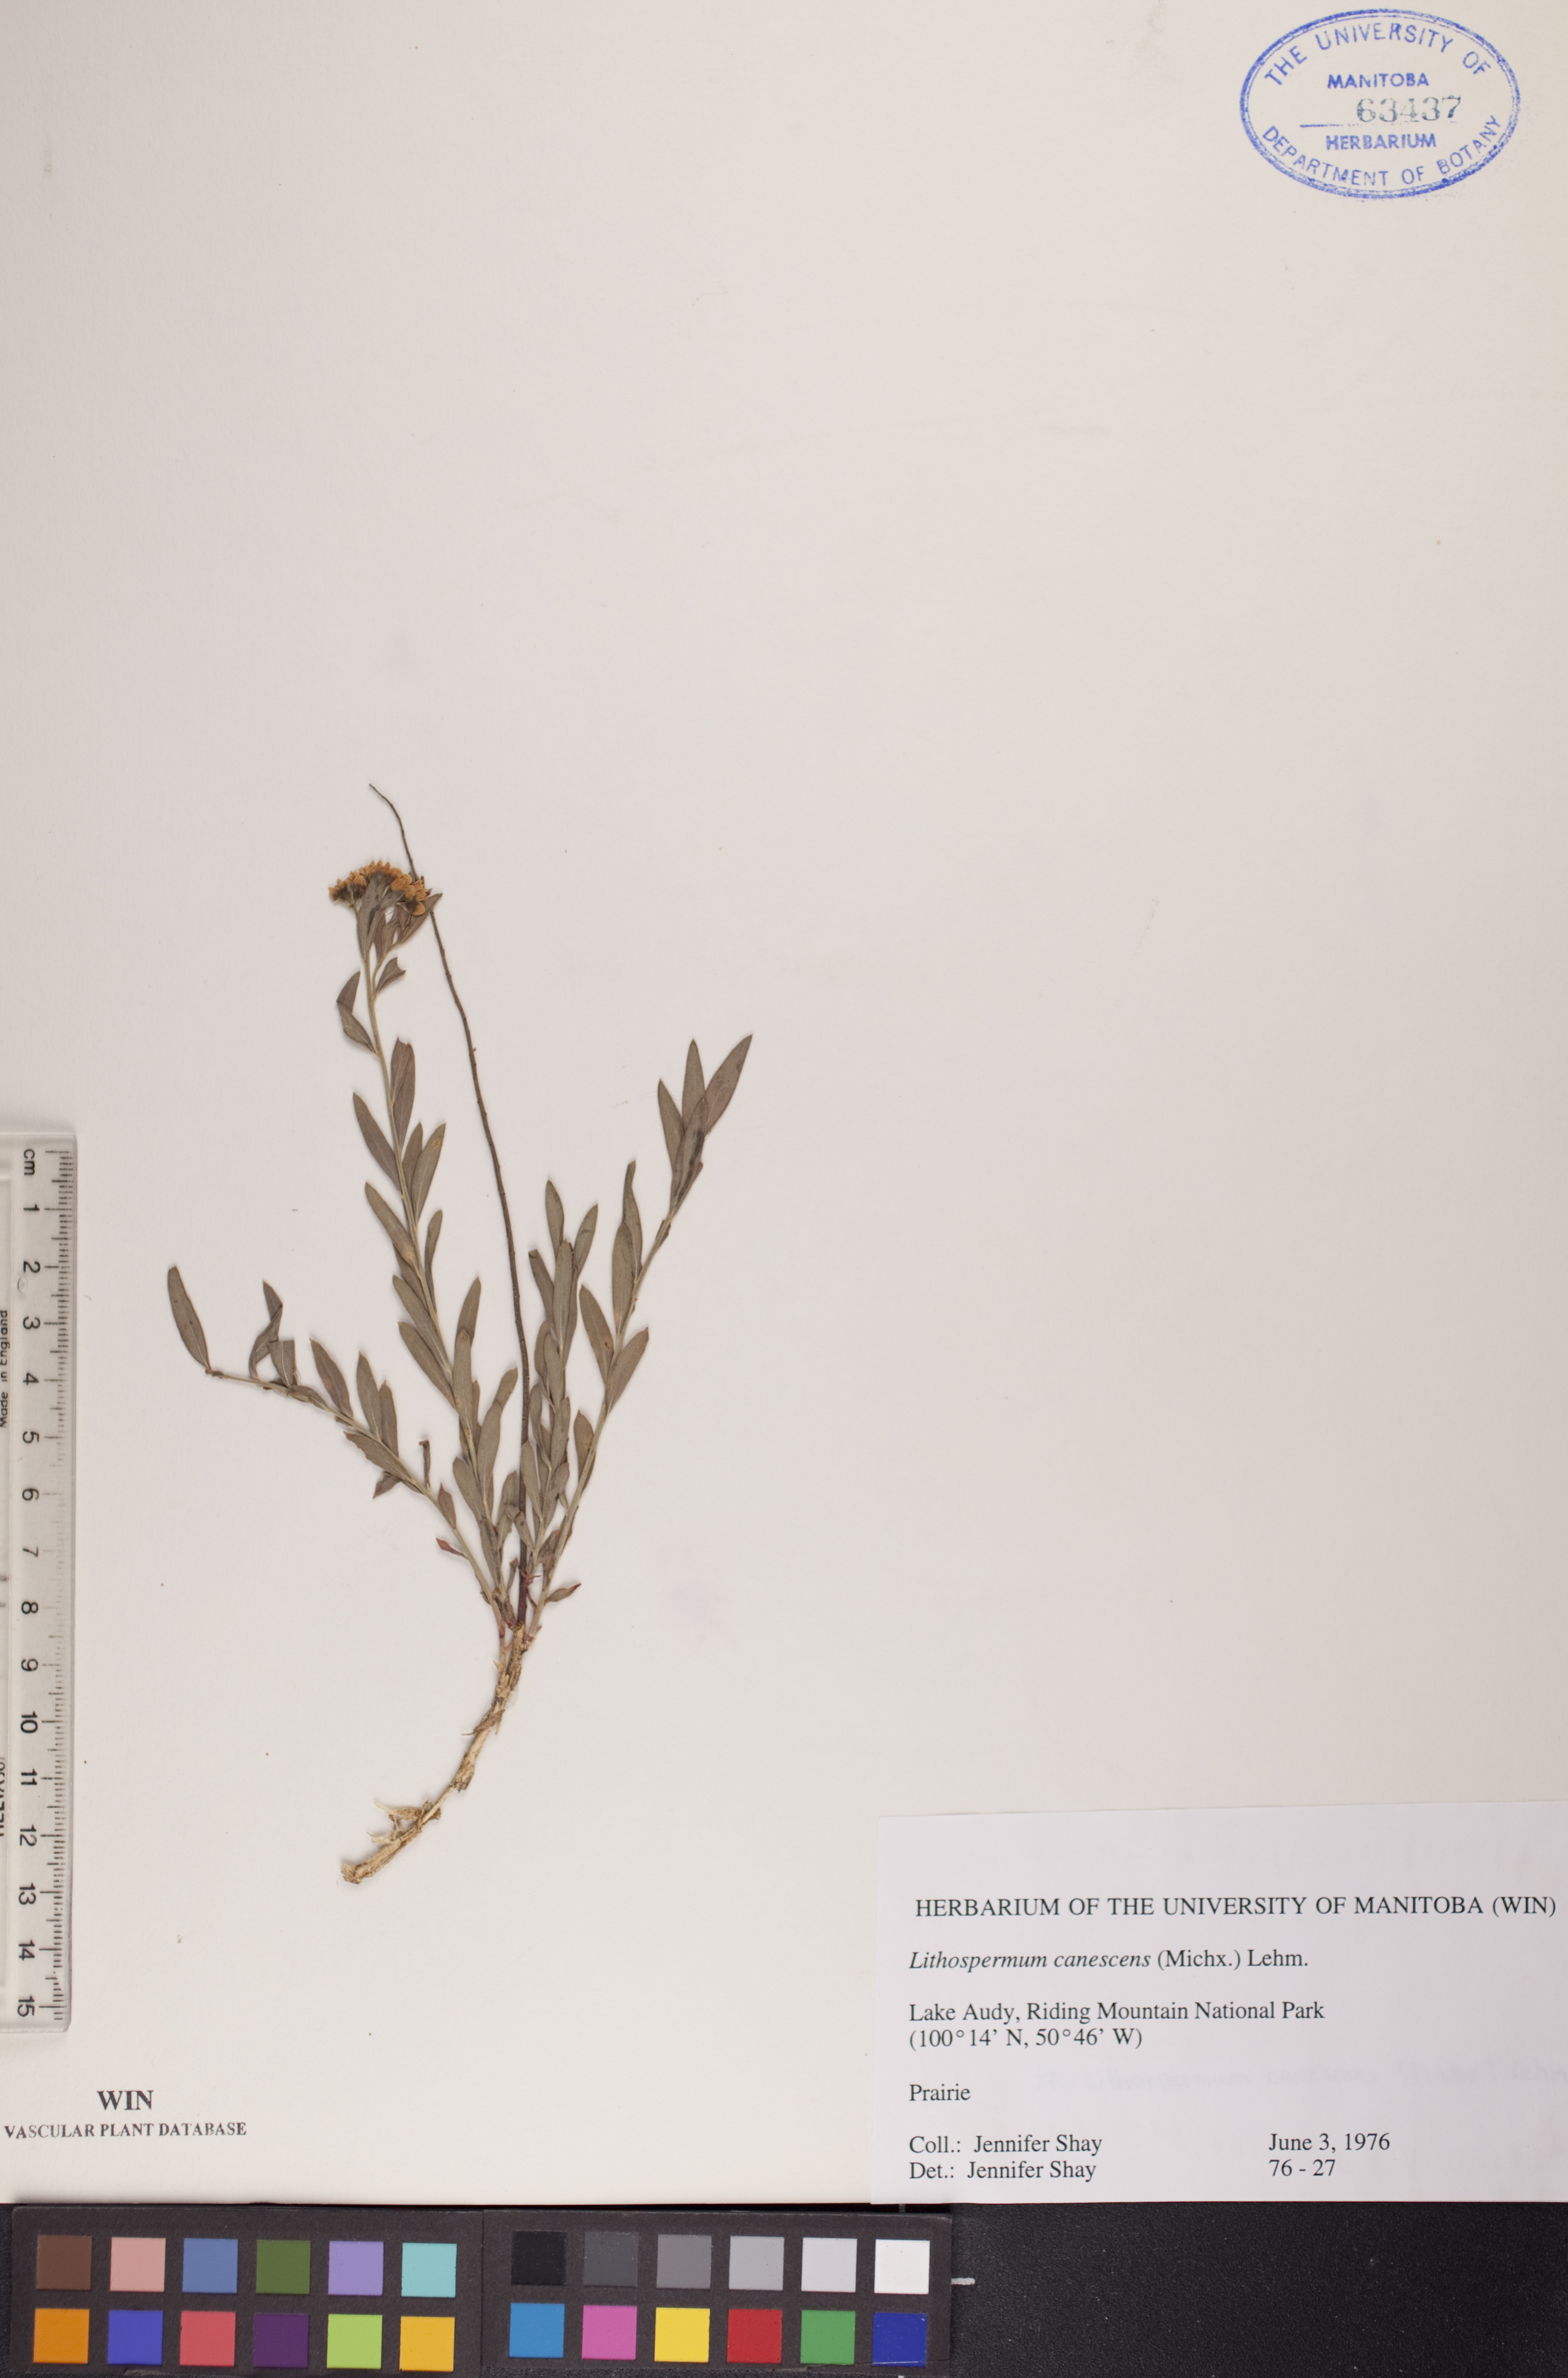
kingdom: Plantae
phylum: Tracheophyta
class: Magnoliopsida
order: Boraginales
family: Boraginaceae
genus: Lithospermum
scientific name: Lithospermum canescens
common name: Hoary puccoon
